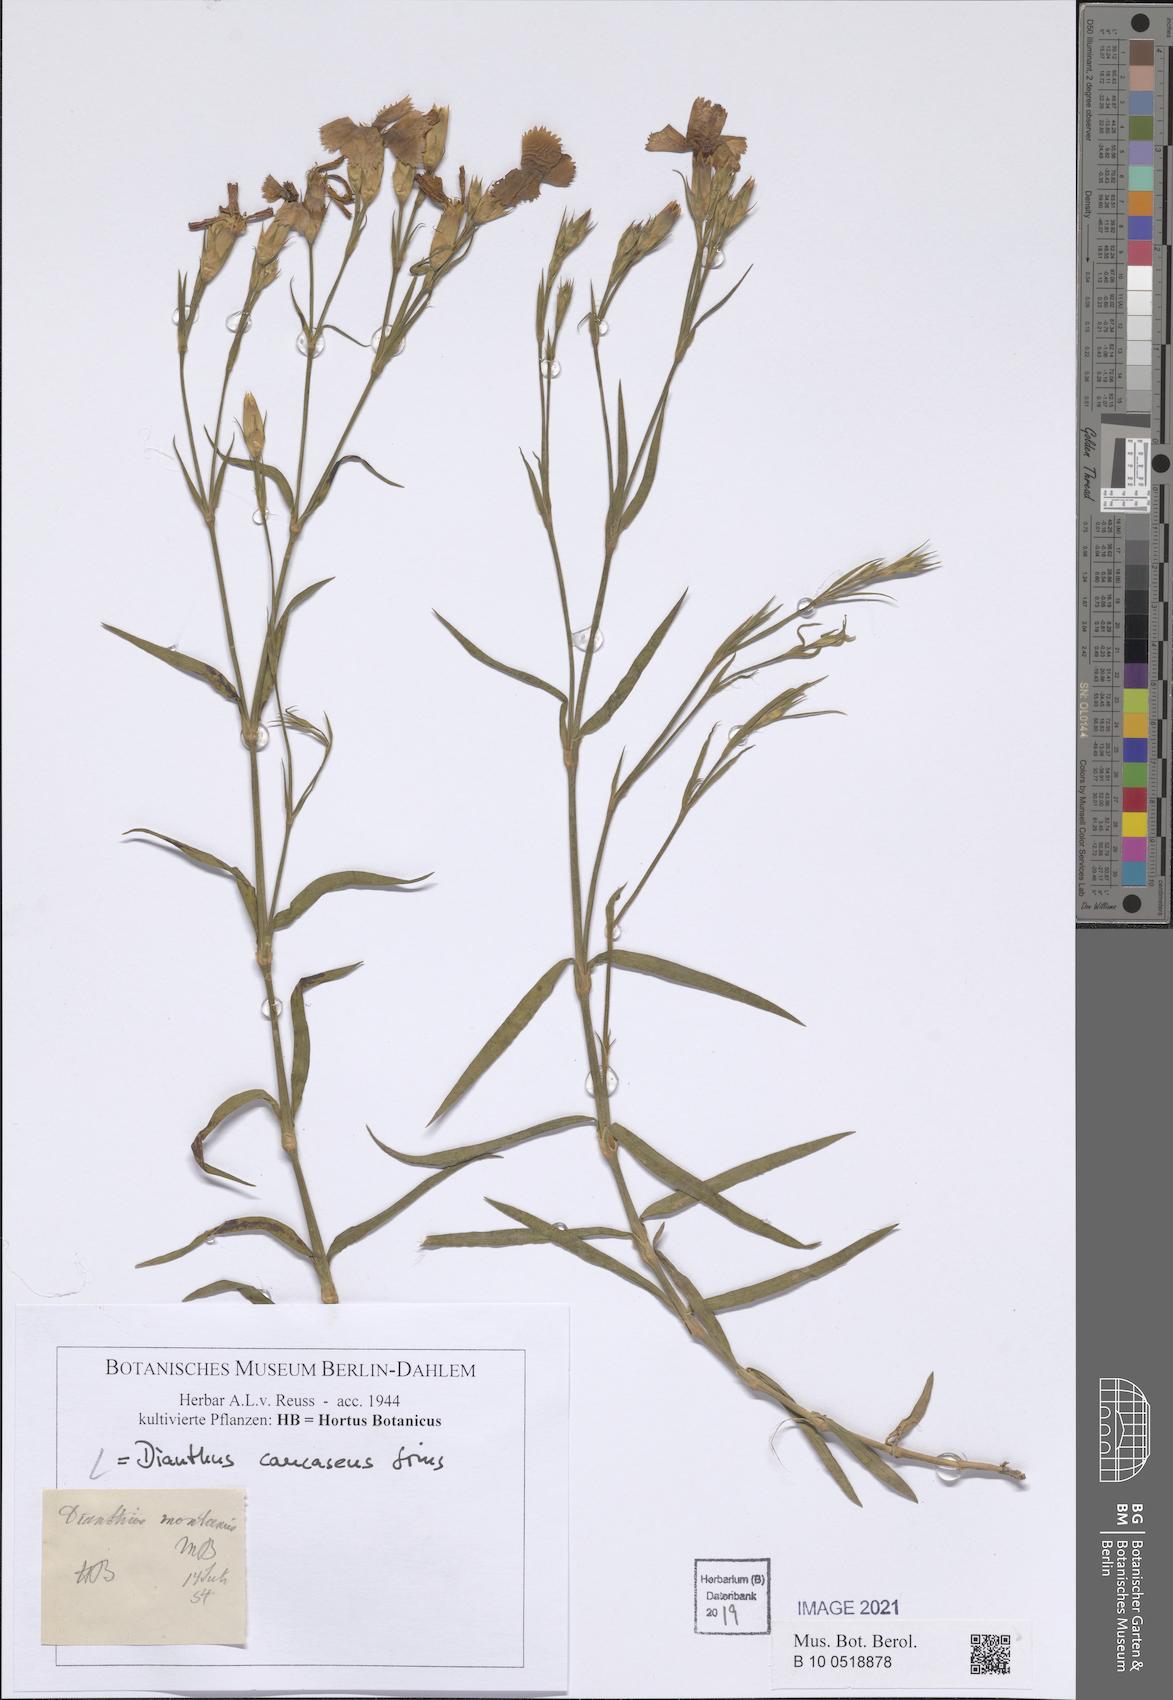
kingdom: Plantae
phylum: Tracheophyta
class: Magnoliopsida
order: Caryophyllales
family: Caryophyllaceae
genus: Dianthus
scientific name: Dianthus caucaseus
